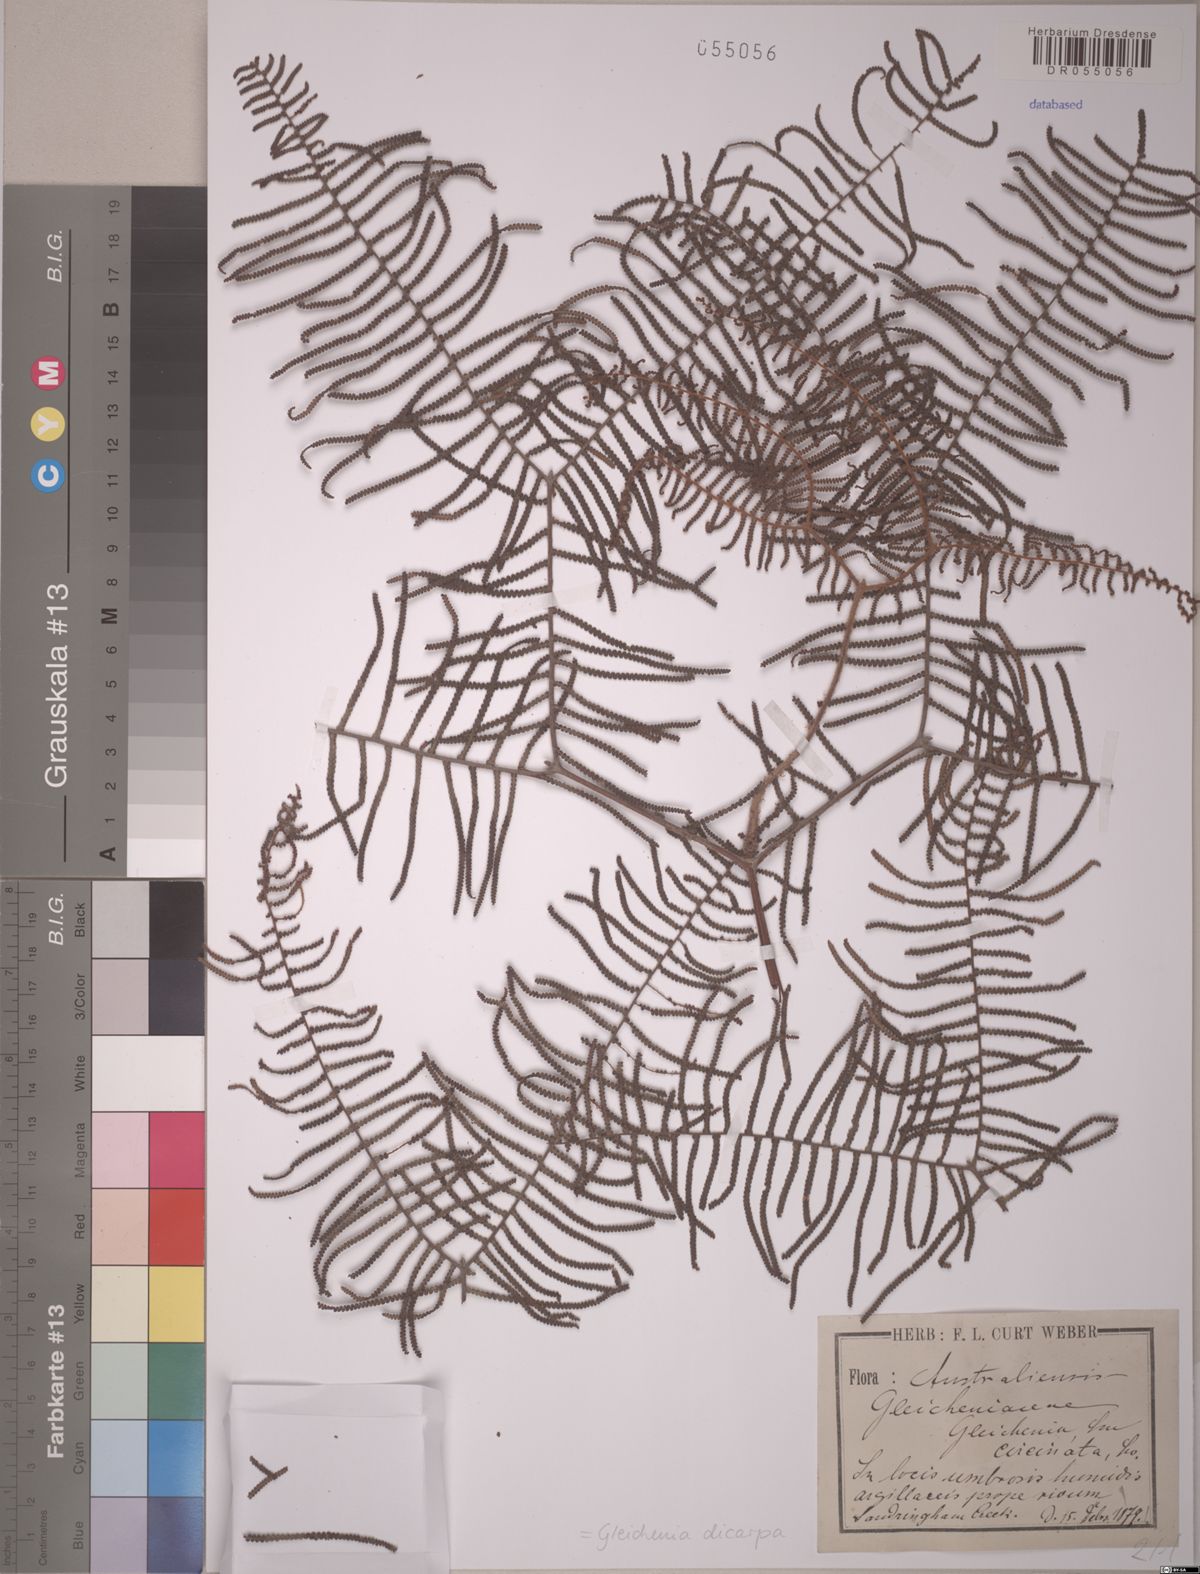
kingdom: Plantae
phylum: Tracheophyta
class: Polypodiopsida
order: Gleicheniales
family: Gleicheniaceae
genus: Gleichenia
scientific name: Gleichenia dicarpa
